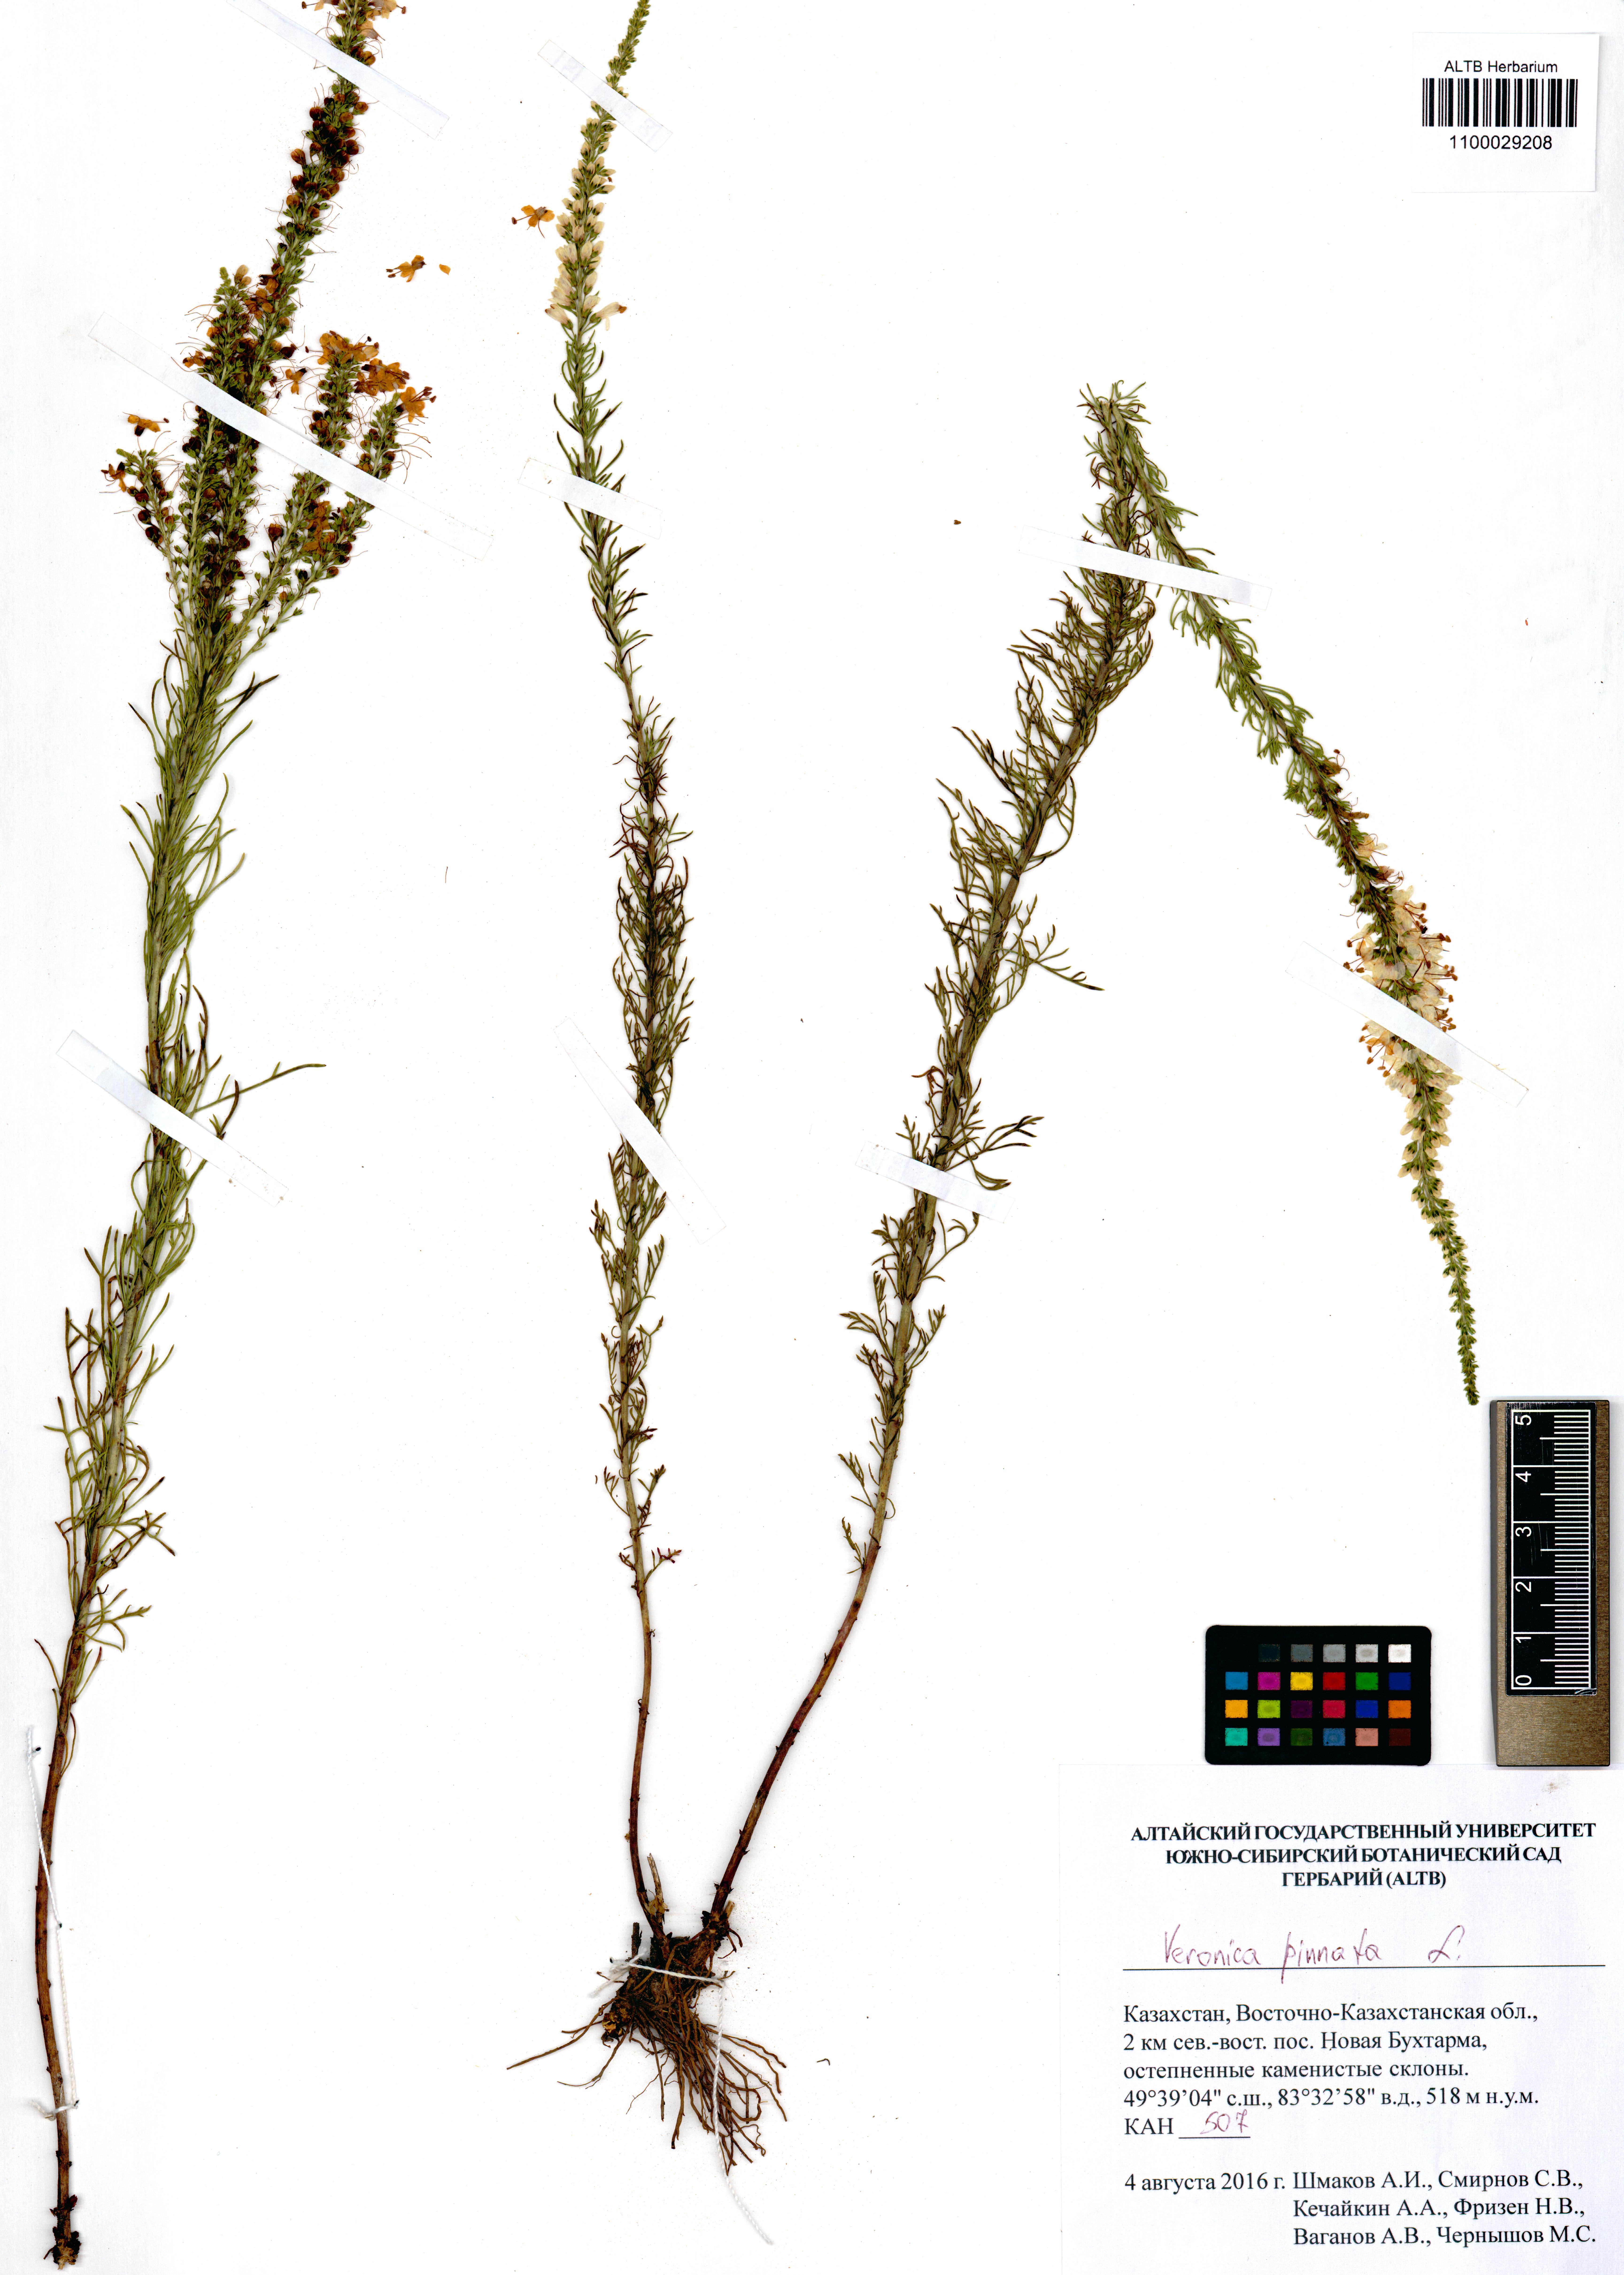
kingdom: Plantae
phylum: Tracheophyta
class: Magnoliopsida
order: Lamiales
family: Plantaginaceae
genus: Veronica
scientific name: Veronica pinnata
